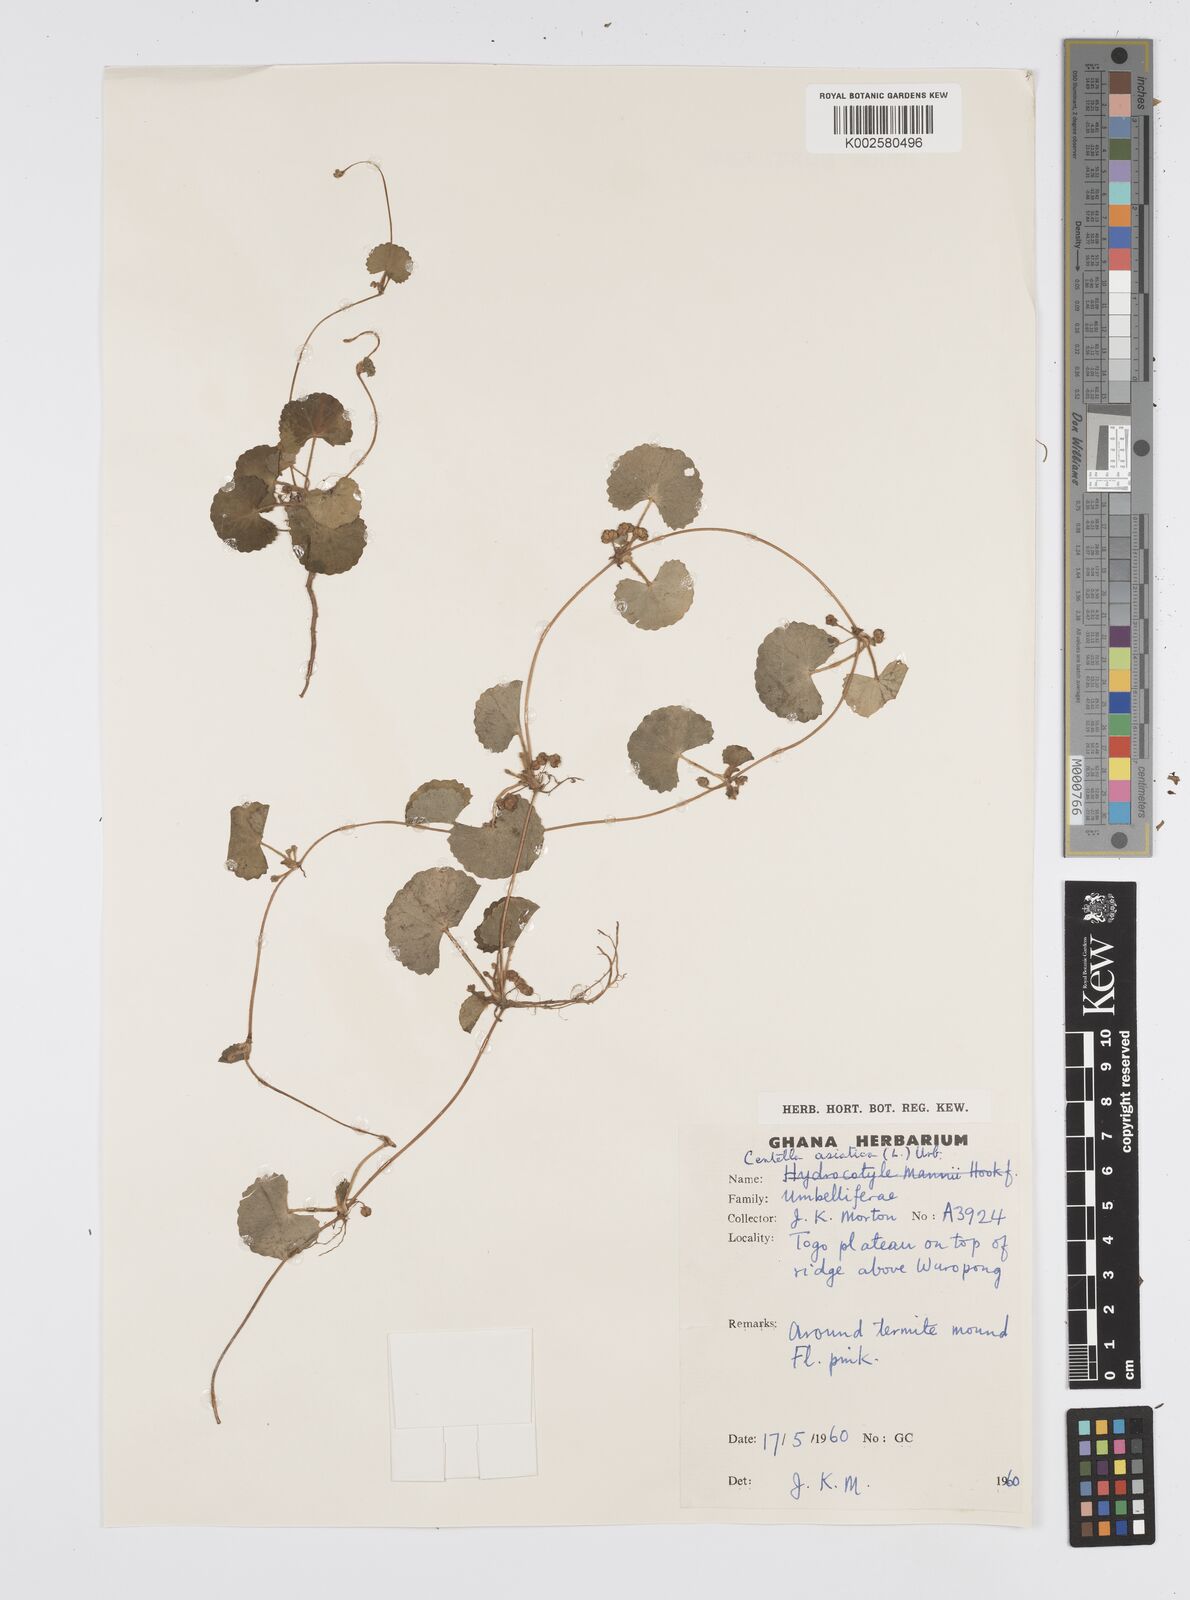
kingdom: Plantae
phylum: Tracheophyta
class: Magnoliopsida
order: Apiales
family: Apiaceae
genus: Centella
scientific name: Centella asiatica
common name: Spadeleaf
